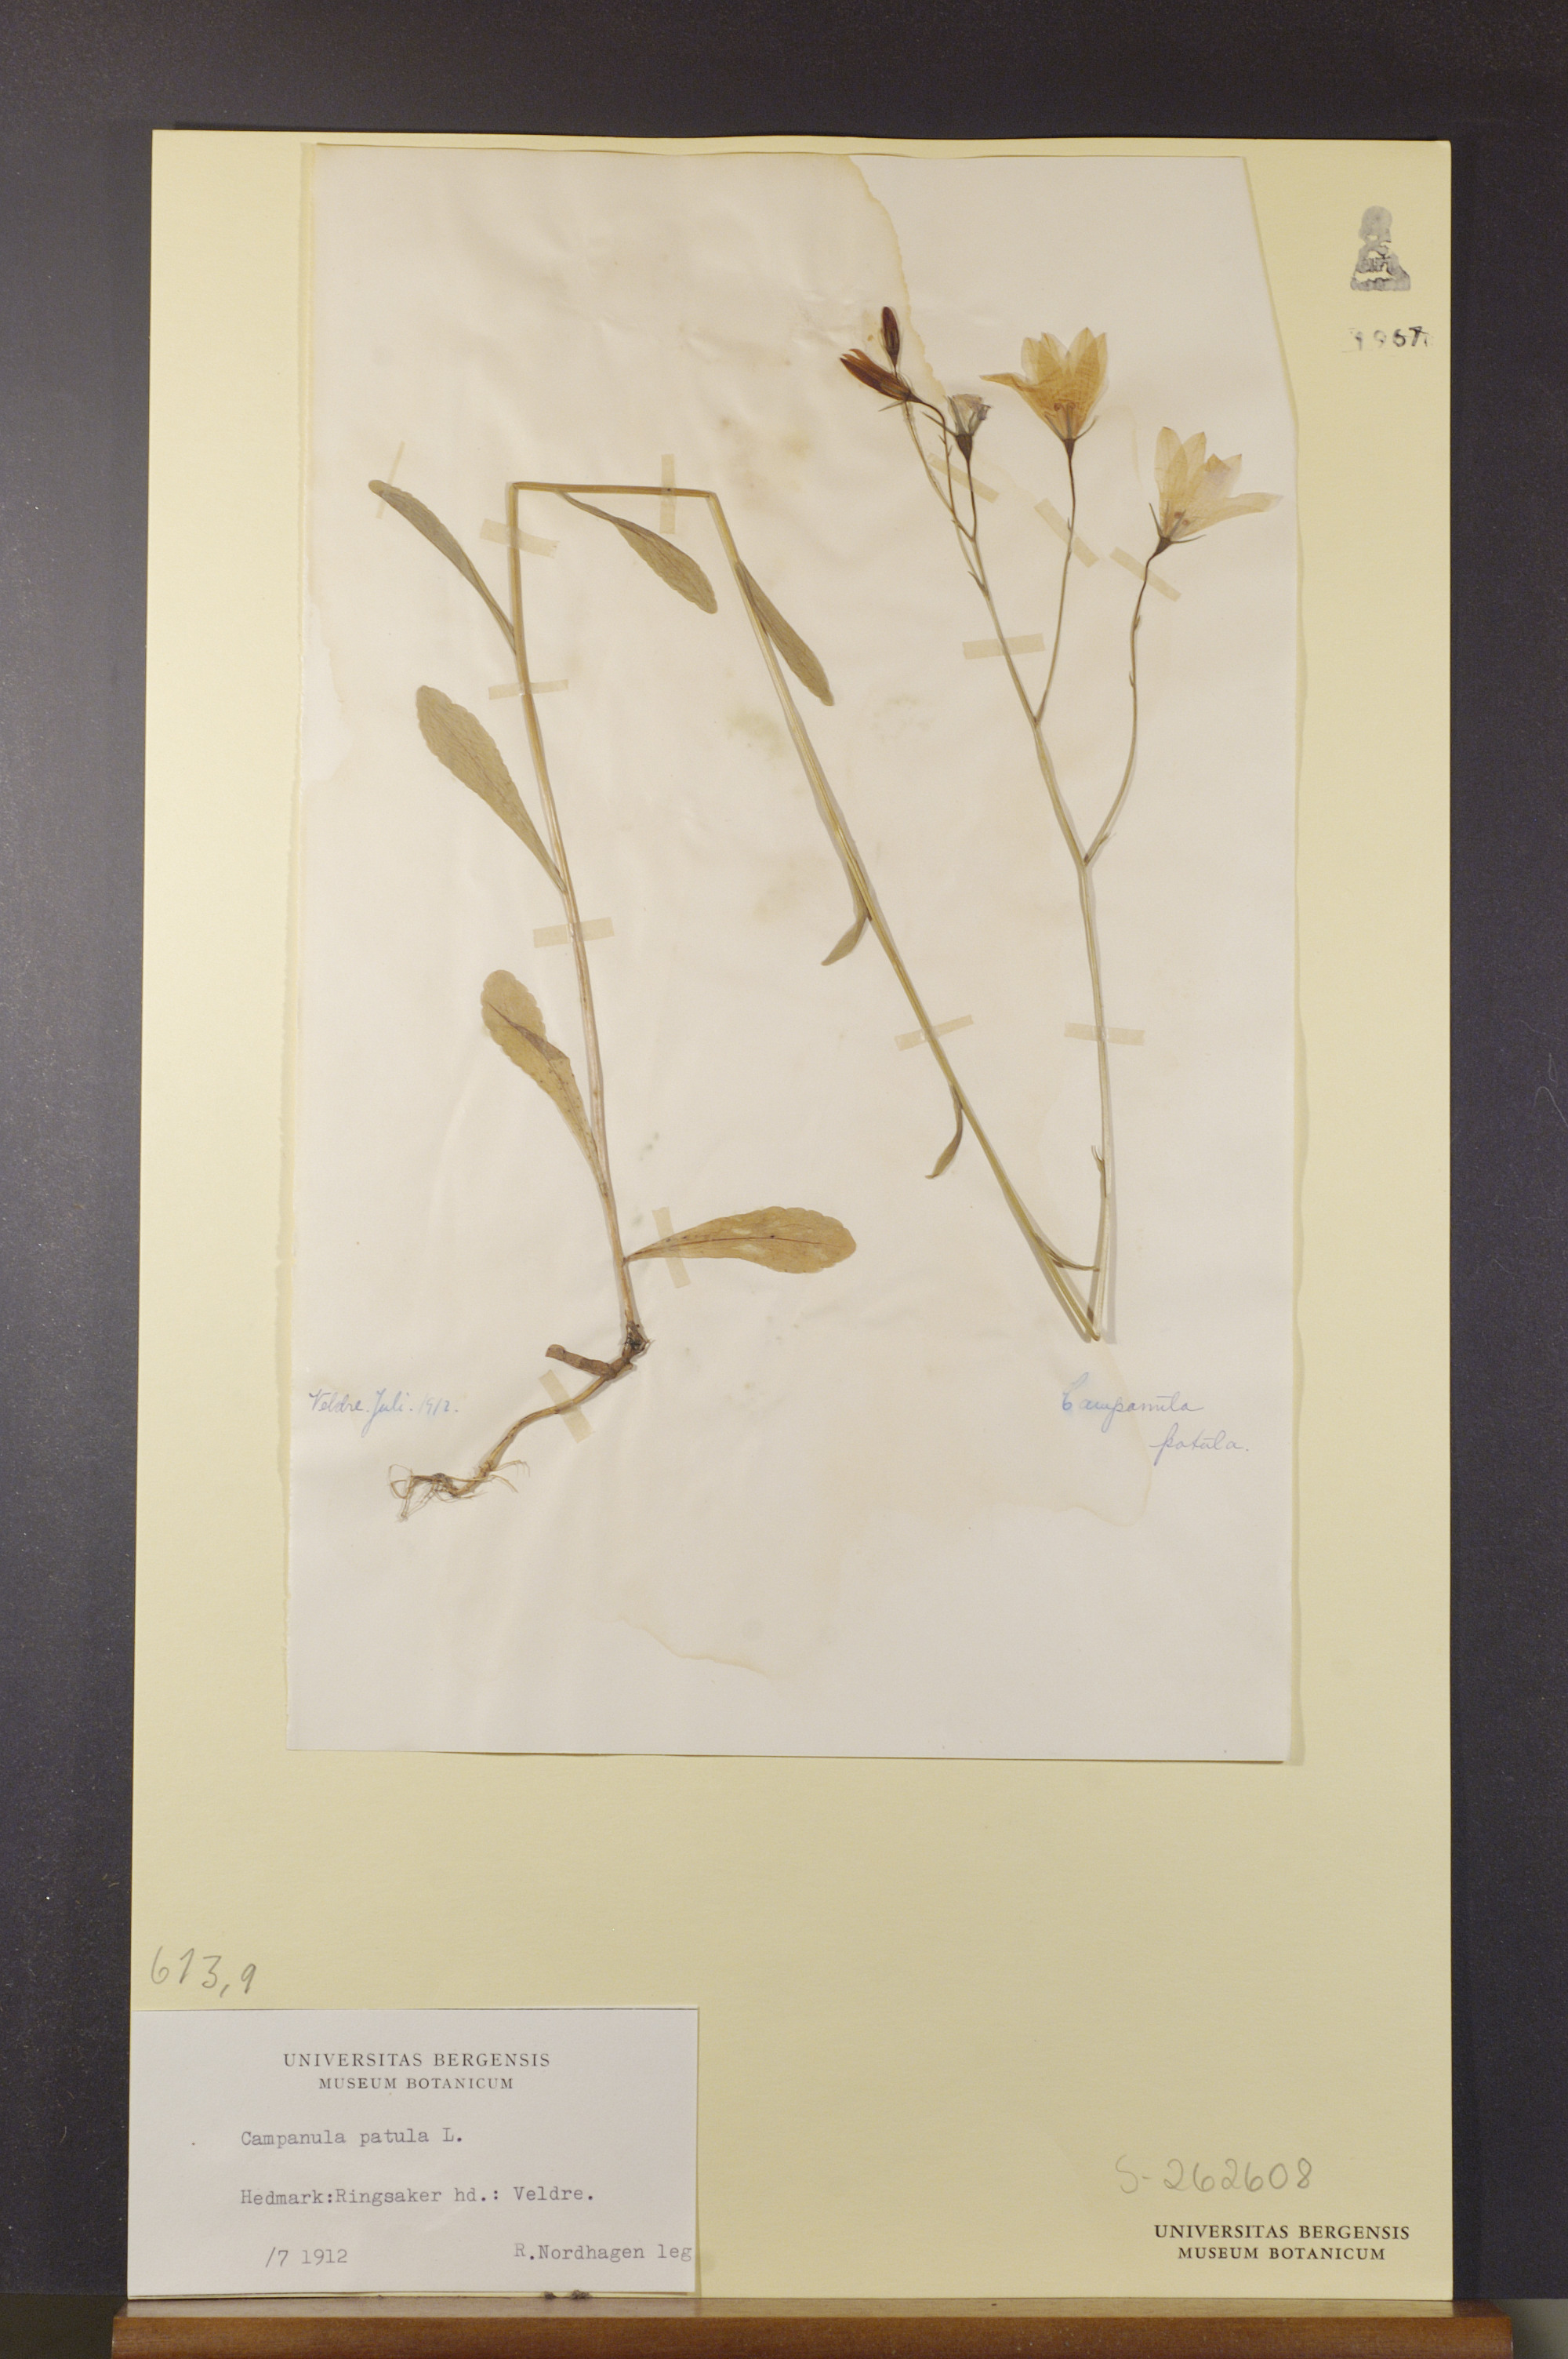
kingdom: Plantae
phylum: Tracheophyta
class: Magnoliopsida
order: Asterales
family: Campanulaceae
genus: Campanula
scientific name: Campanula patula
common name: Spreading bellflower
